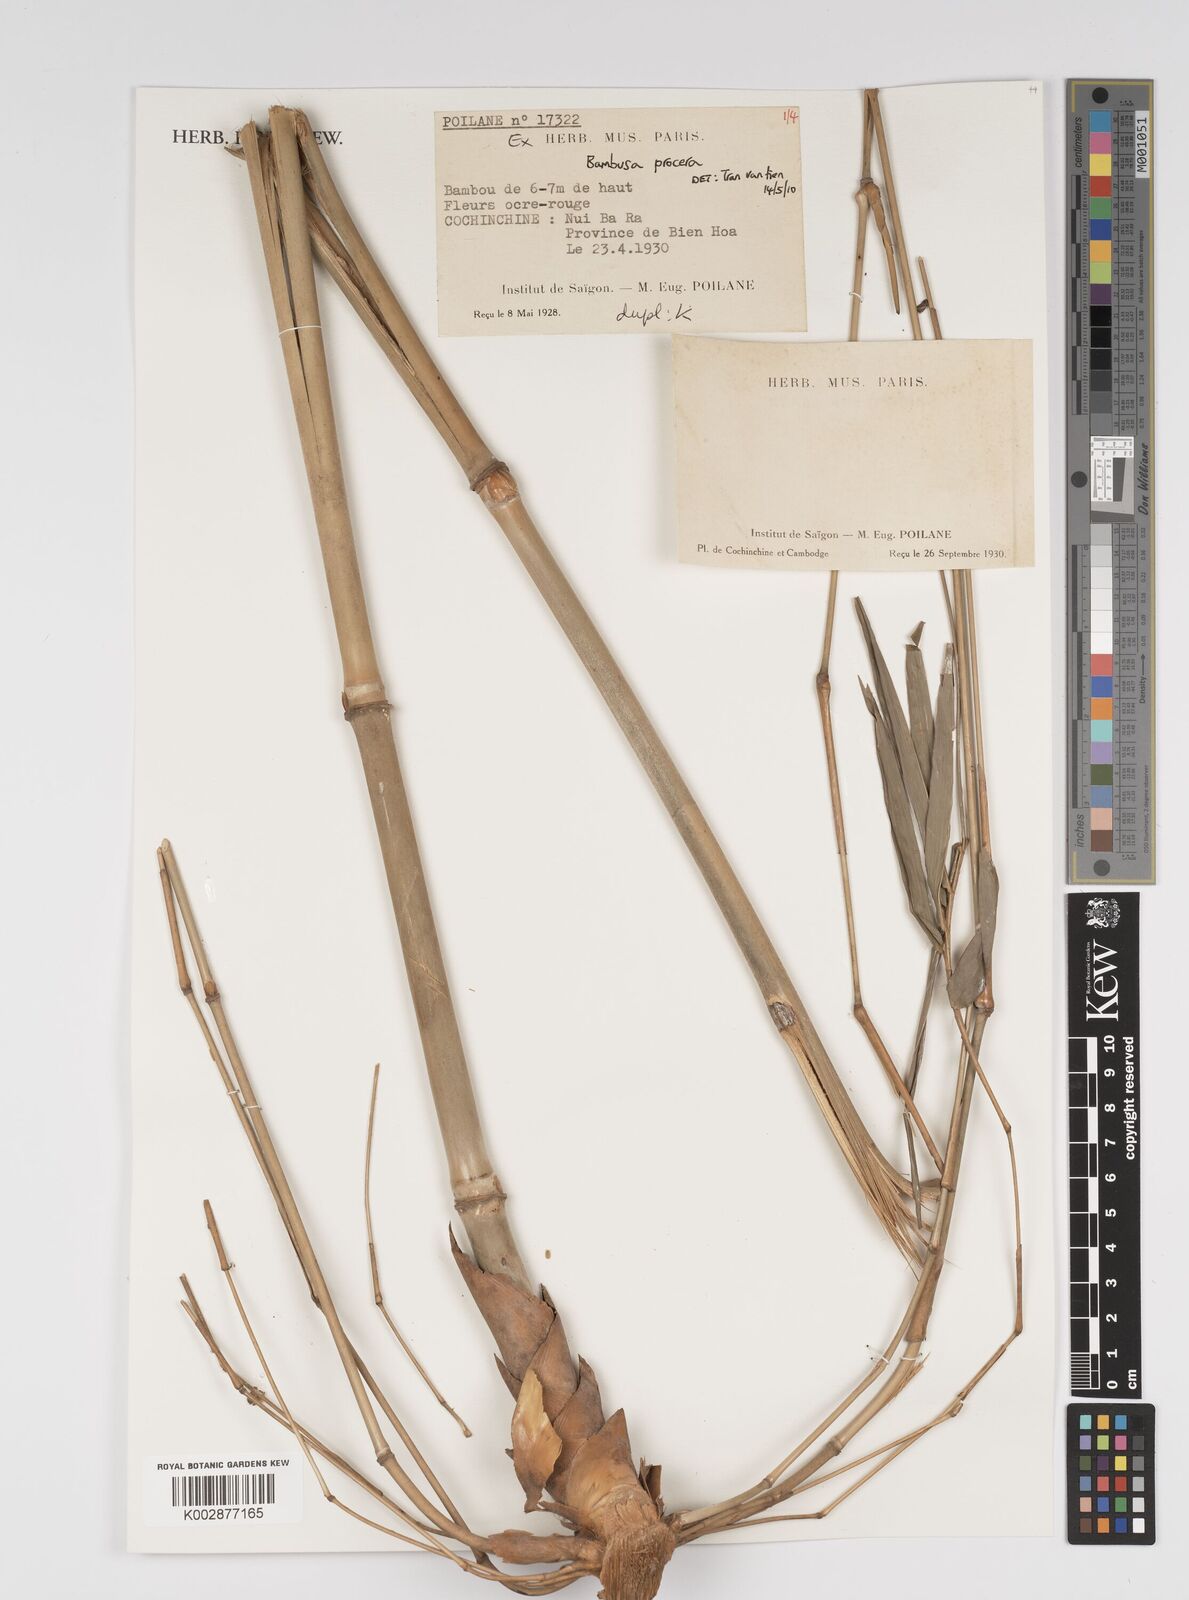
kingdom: Plantae
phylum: Tracheophyta
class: Liliopsida
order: Poales
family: Poaceae
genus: Bambusa
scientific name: Bambusa procera
